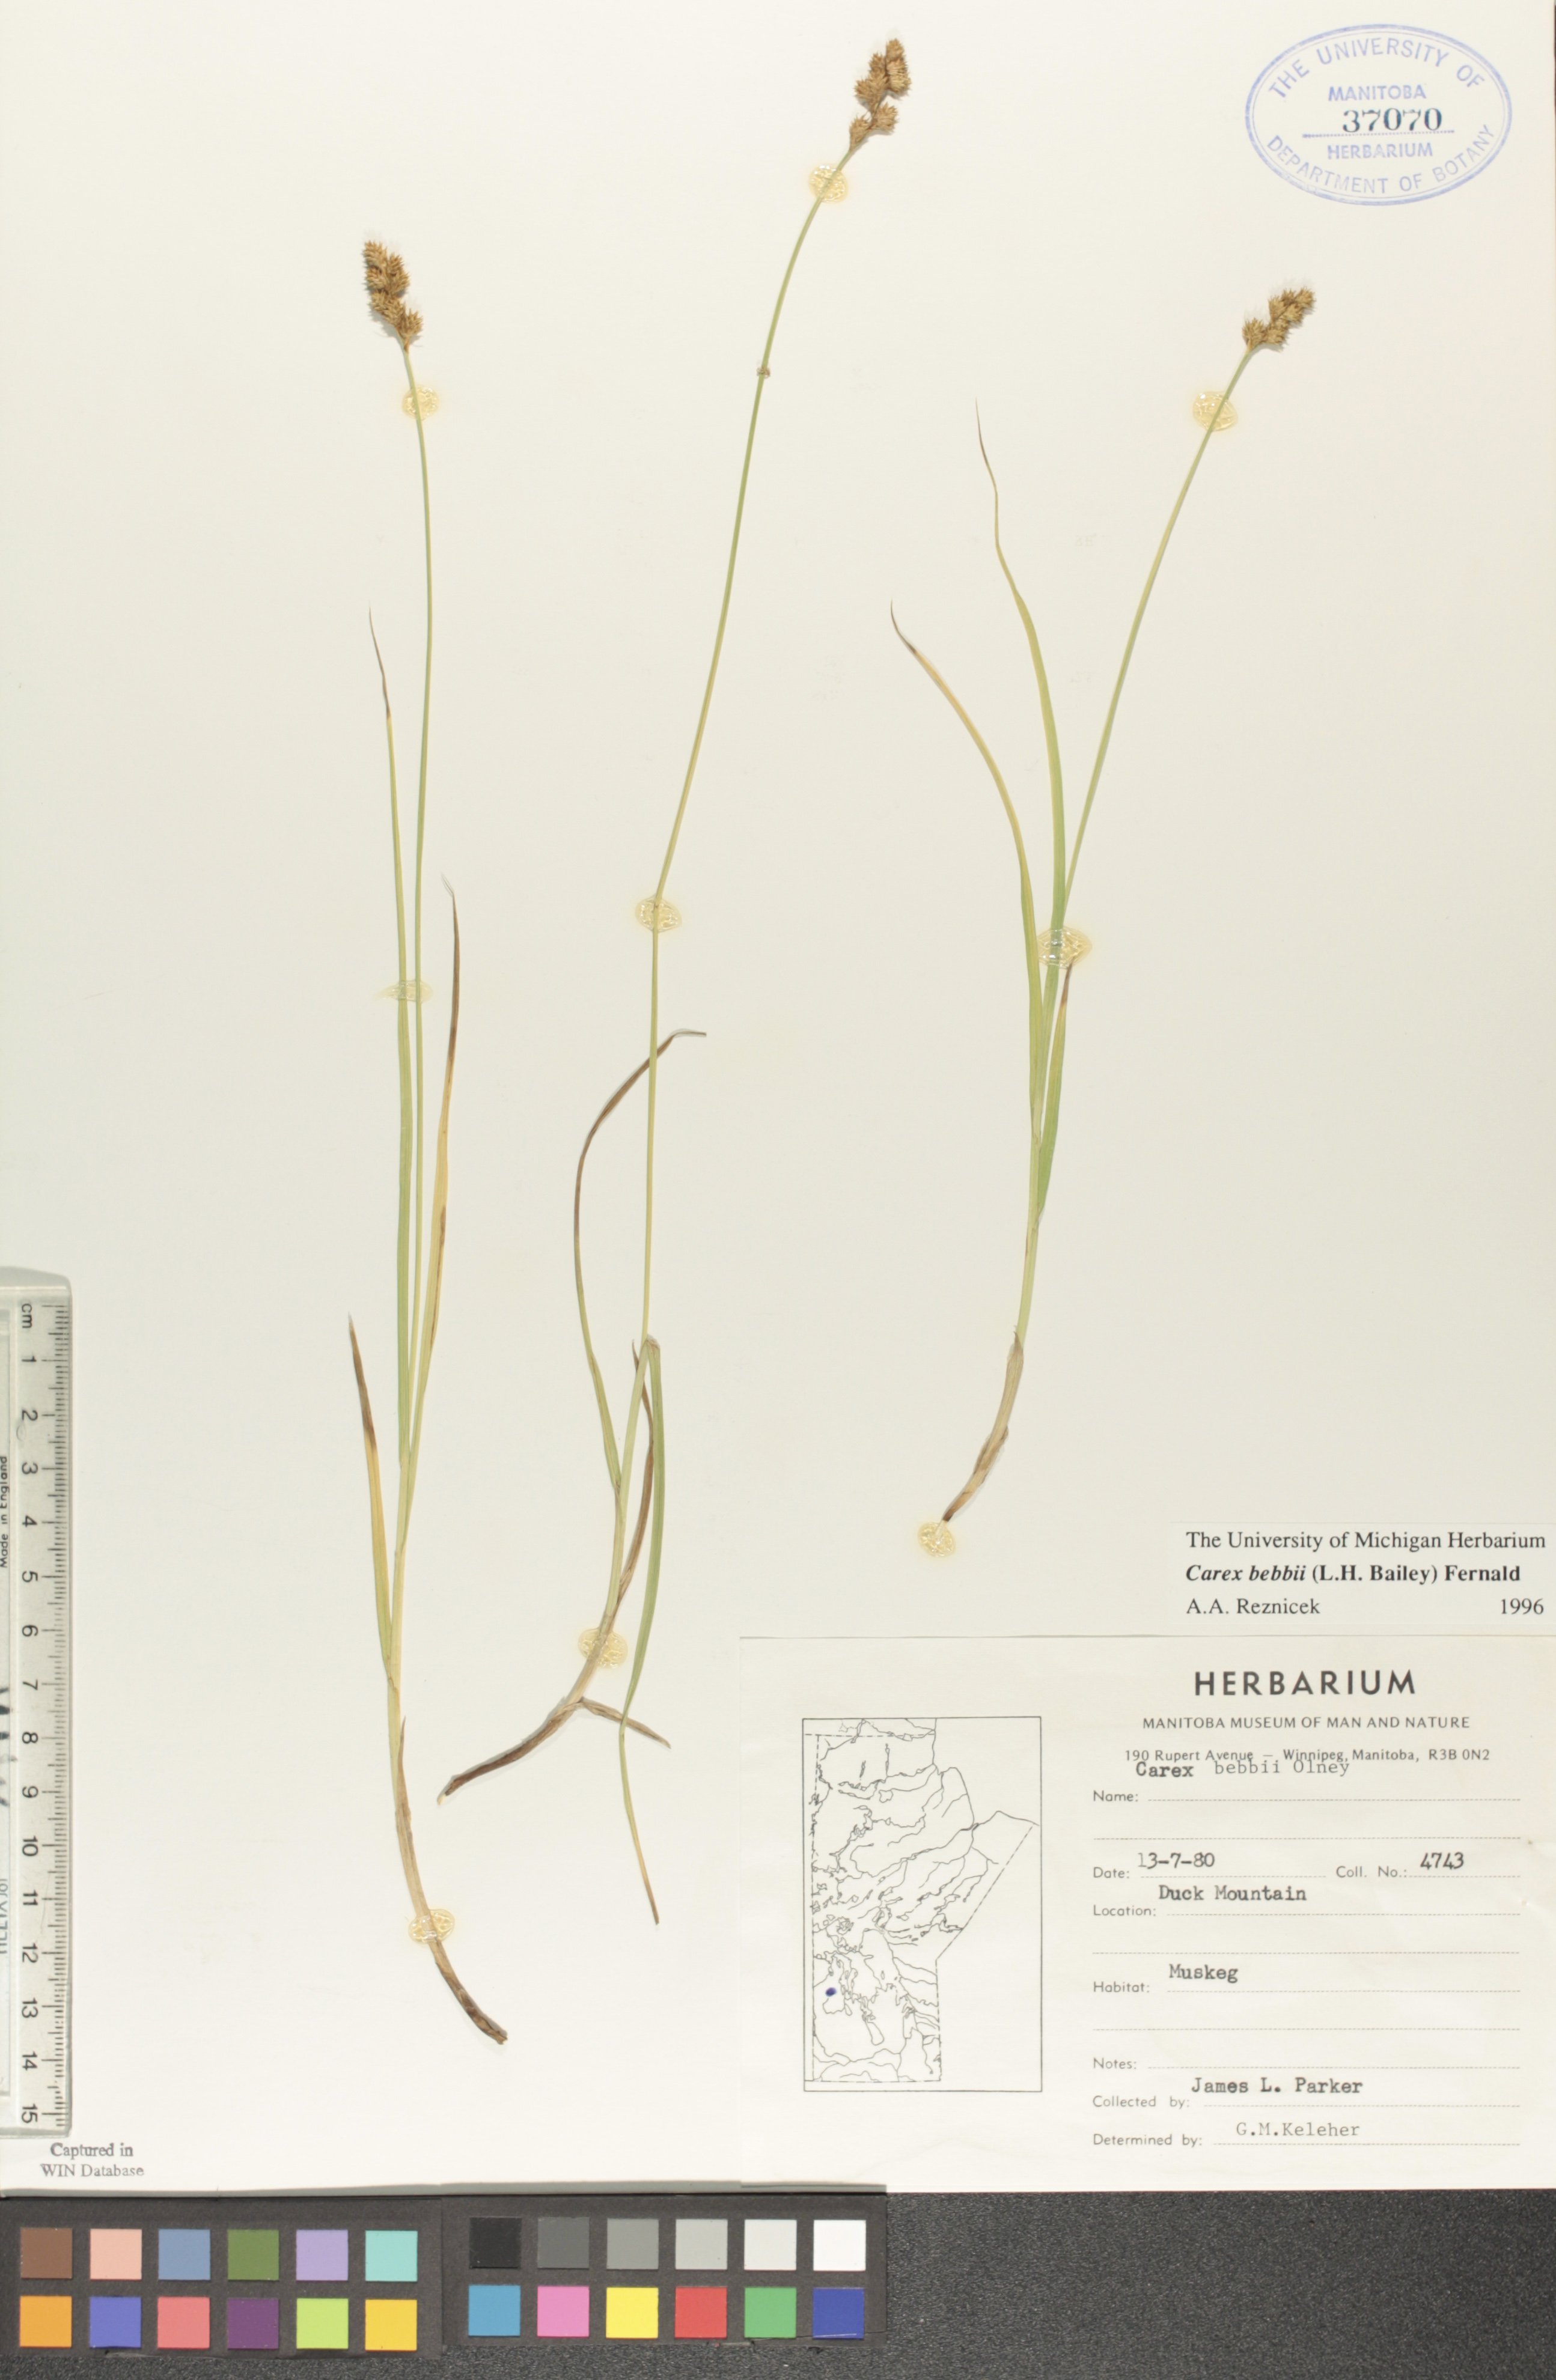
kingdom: Plantae
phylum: Tracheophyta
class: Liliopsida
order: Poales
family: Cyperaceae
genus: Carex
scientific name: Carex bebbii
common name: Bebb's sedge
